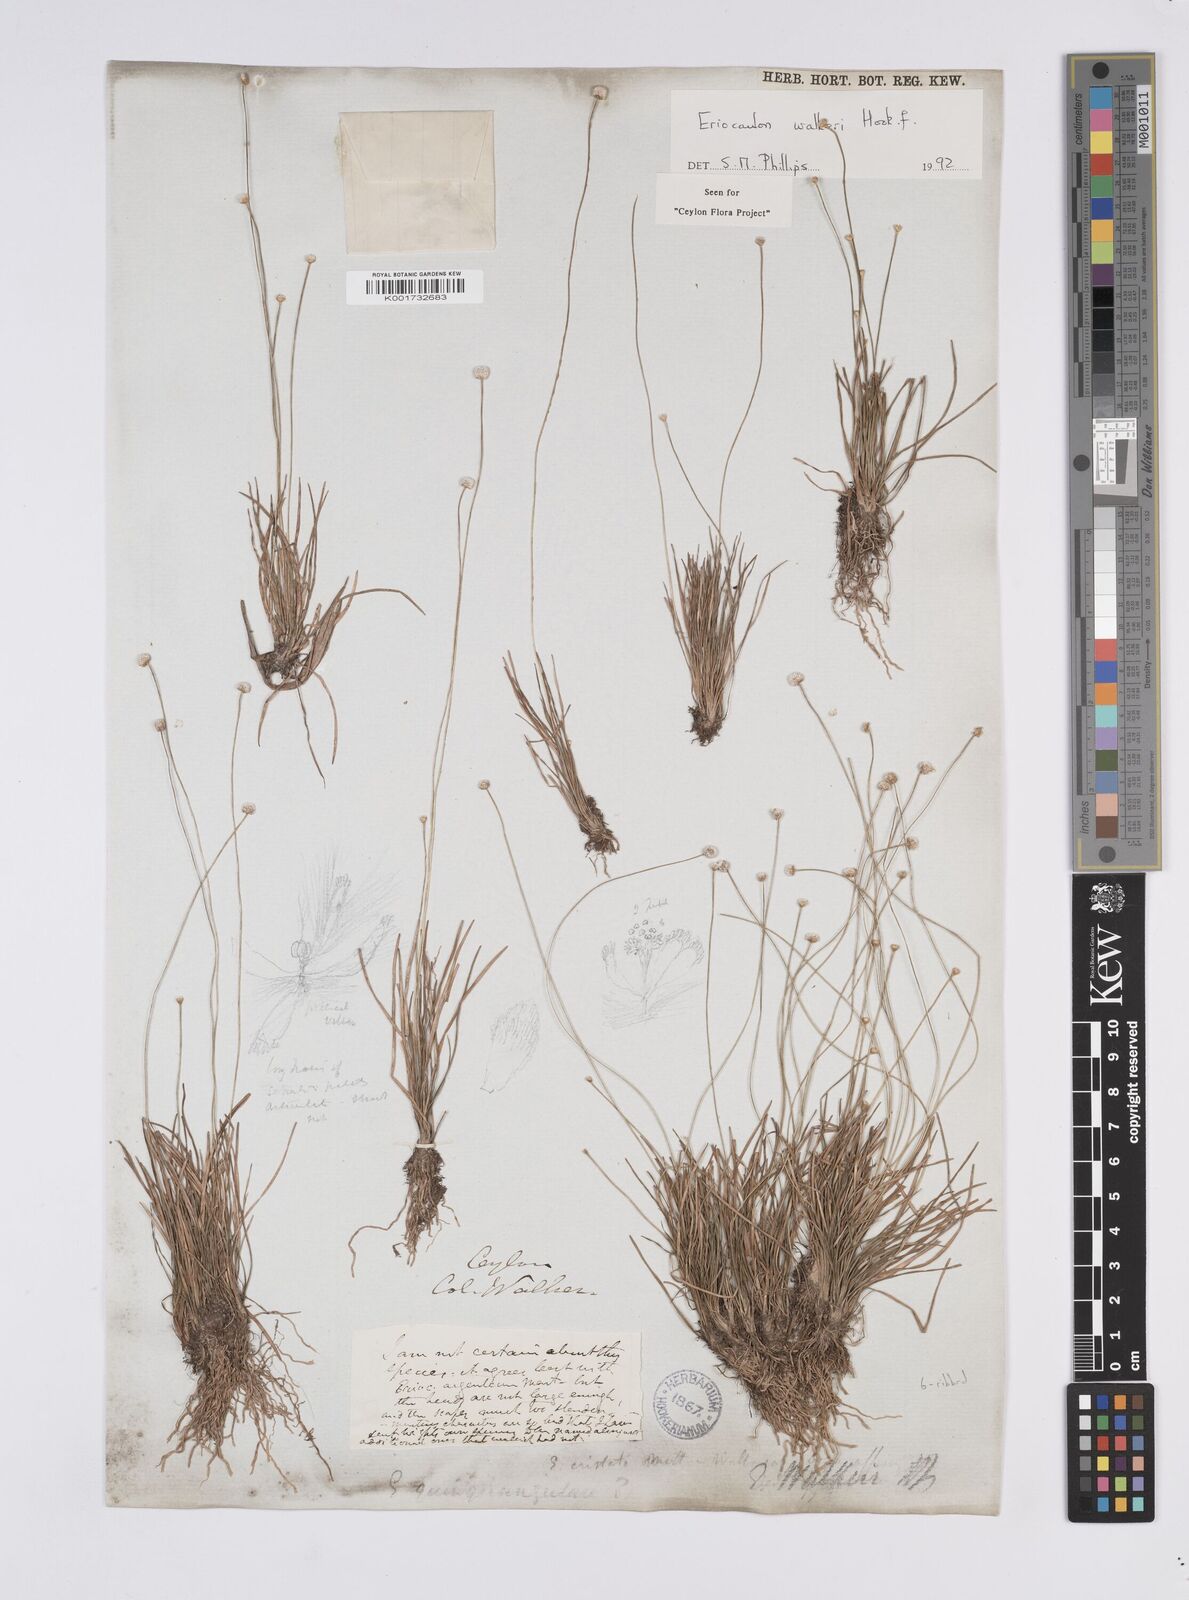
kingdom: Plantae
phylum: Tracheophyta
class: Liliopsida
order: Poales
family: Eriocaulaceae
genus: Eriocaulon
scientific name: Eriocaulon walkeri
